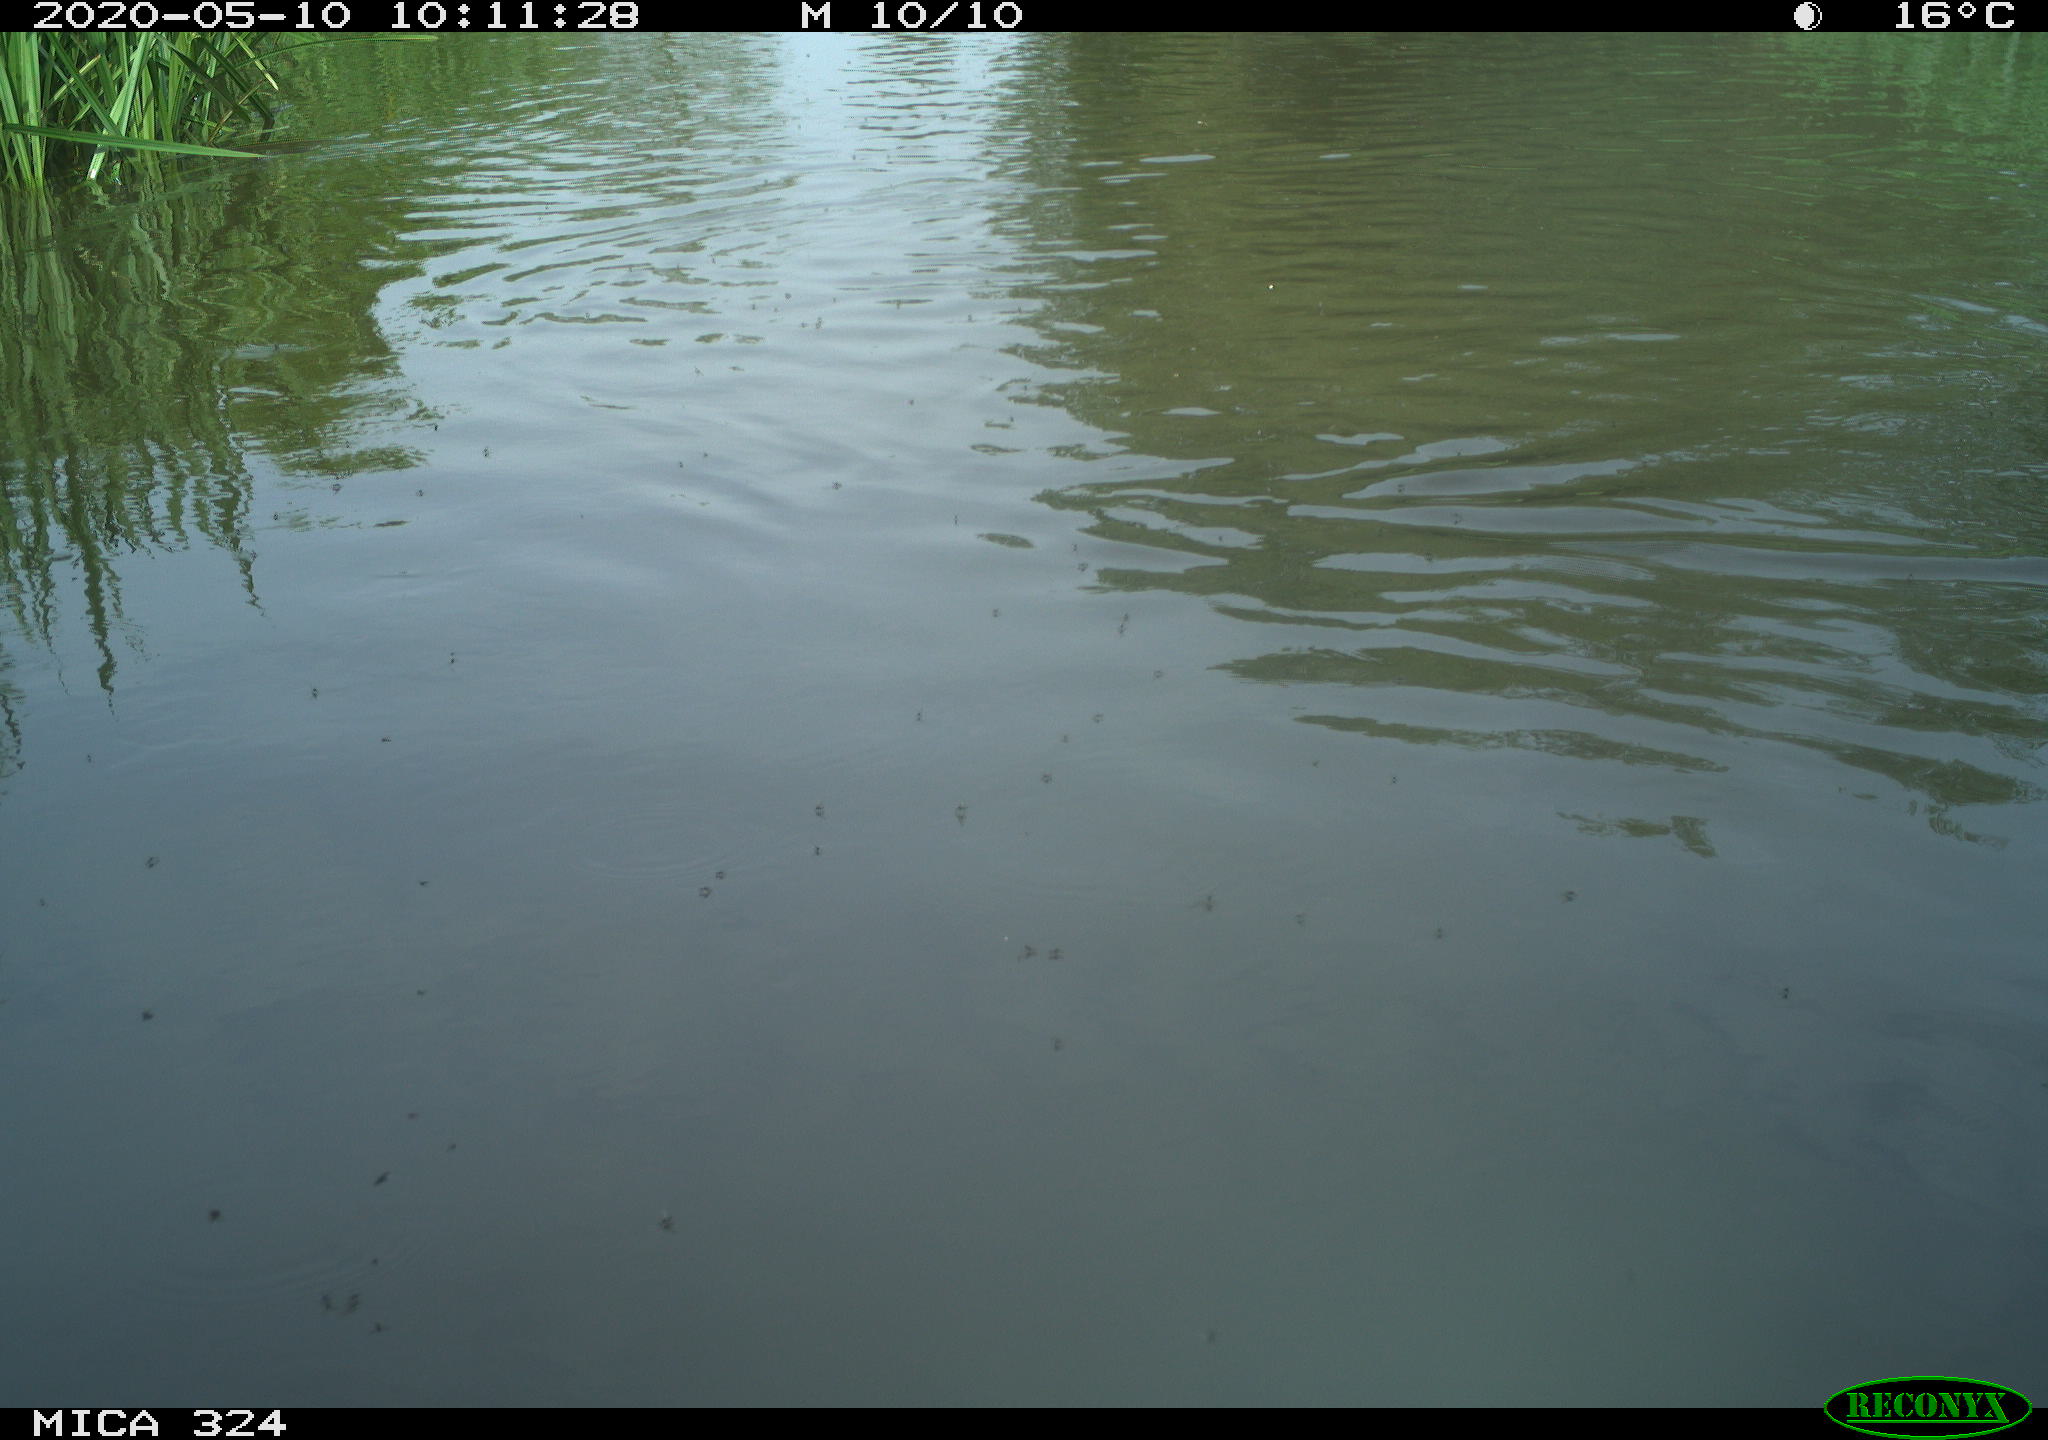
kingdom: Animalia
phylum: Chordata
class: Aves
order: Gruiformes
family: Rallidae
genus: Gallinula
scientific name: Gallinula chloropus
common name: Common moorhen
